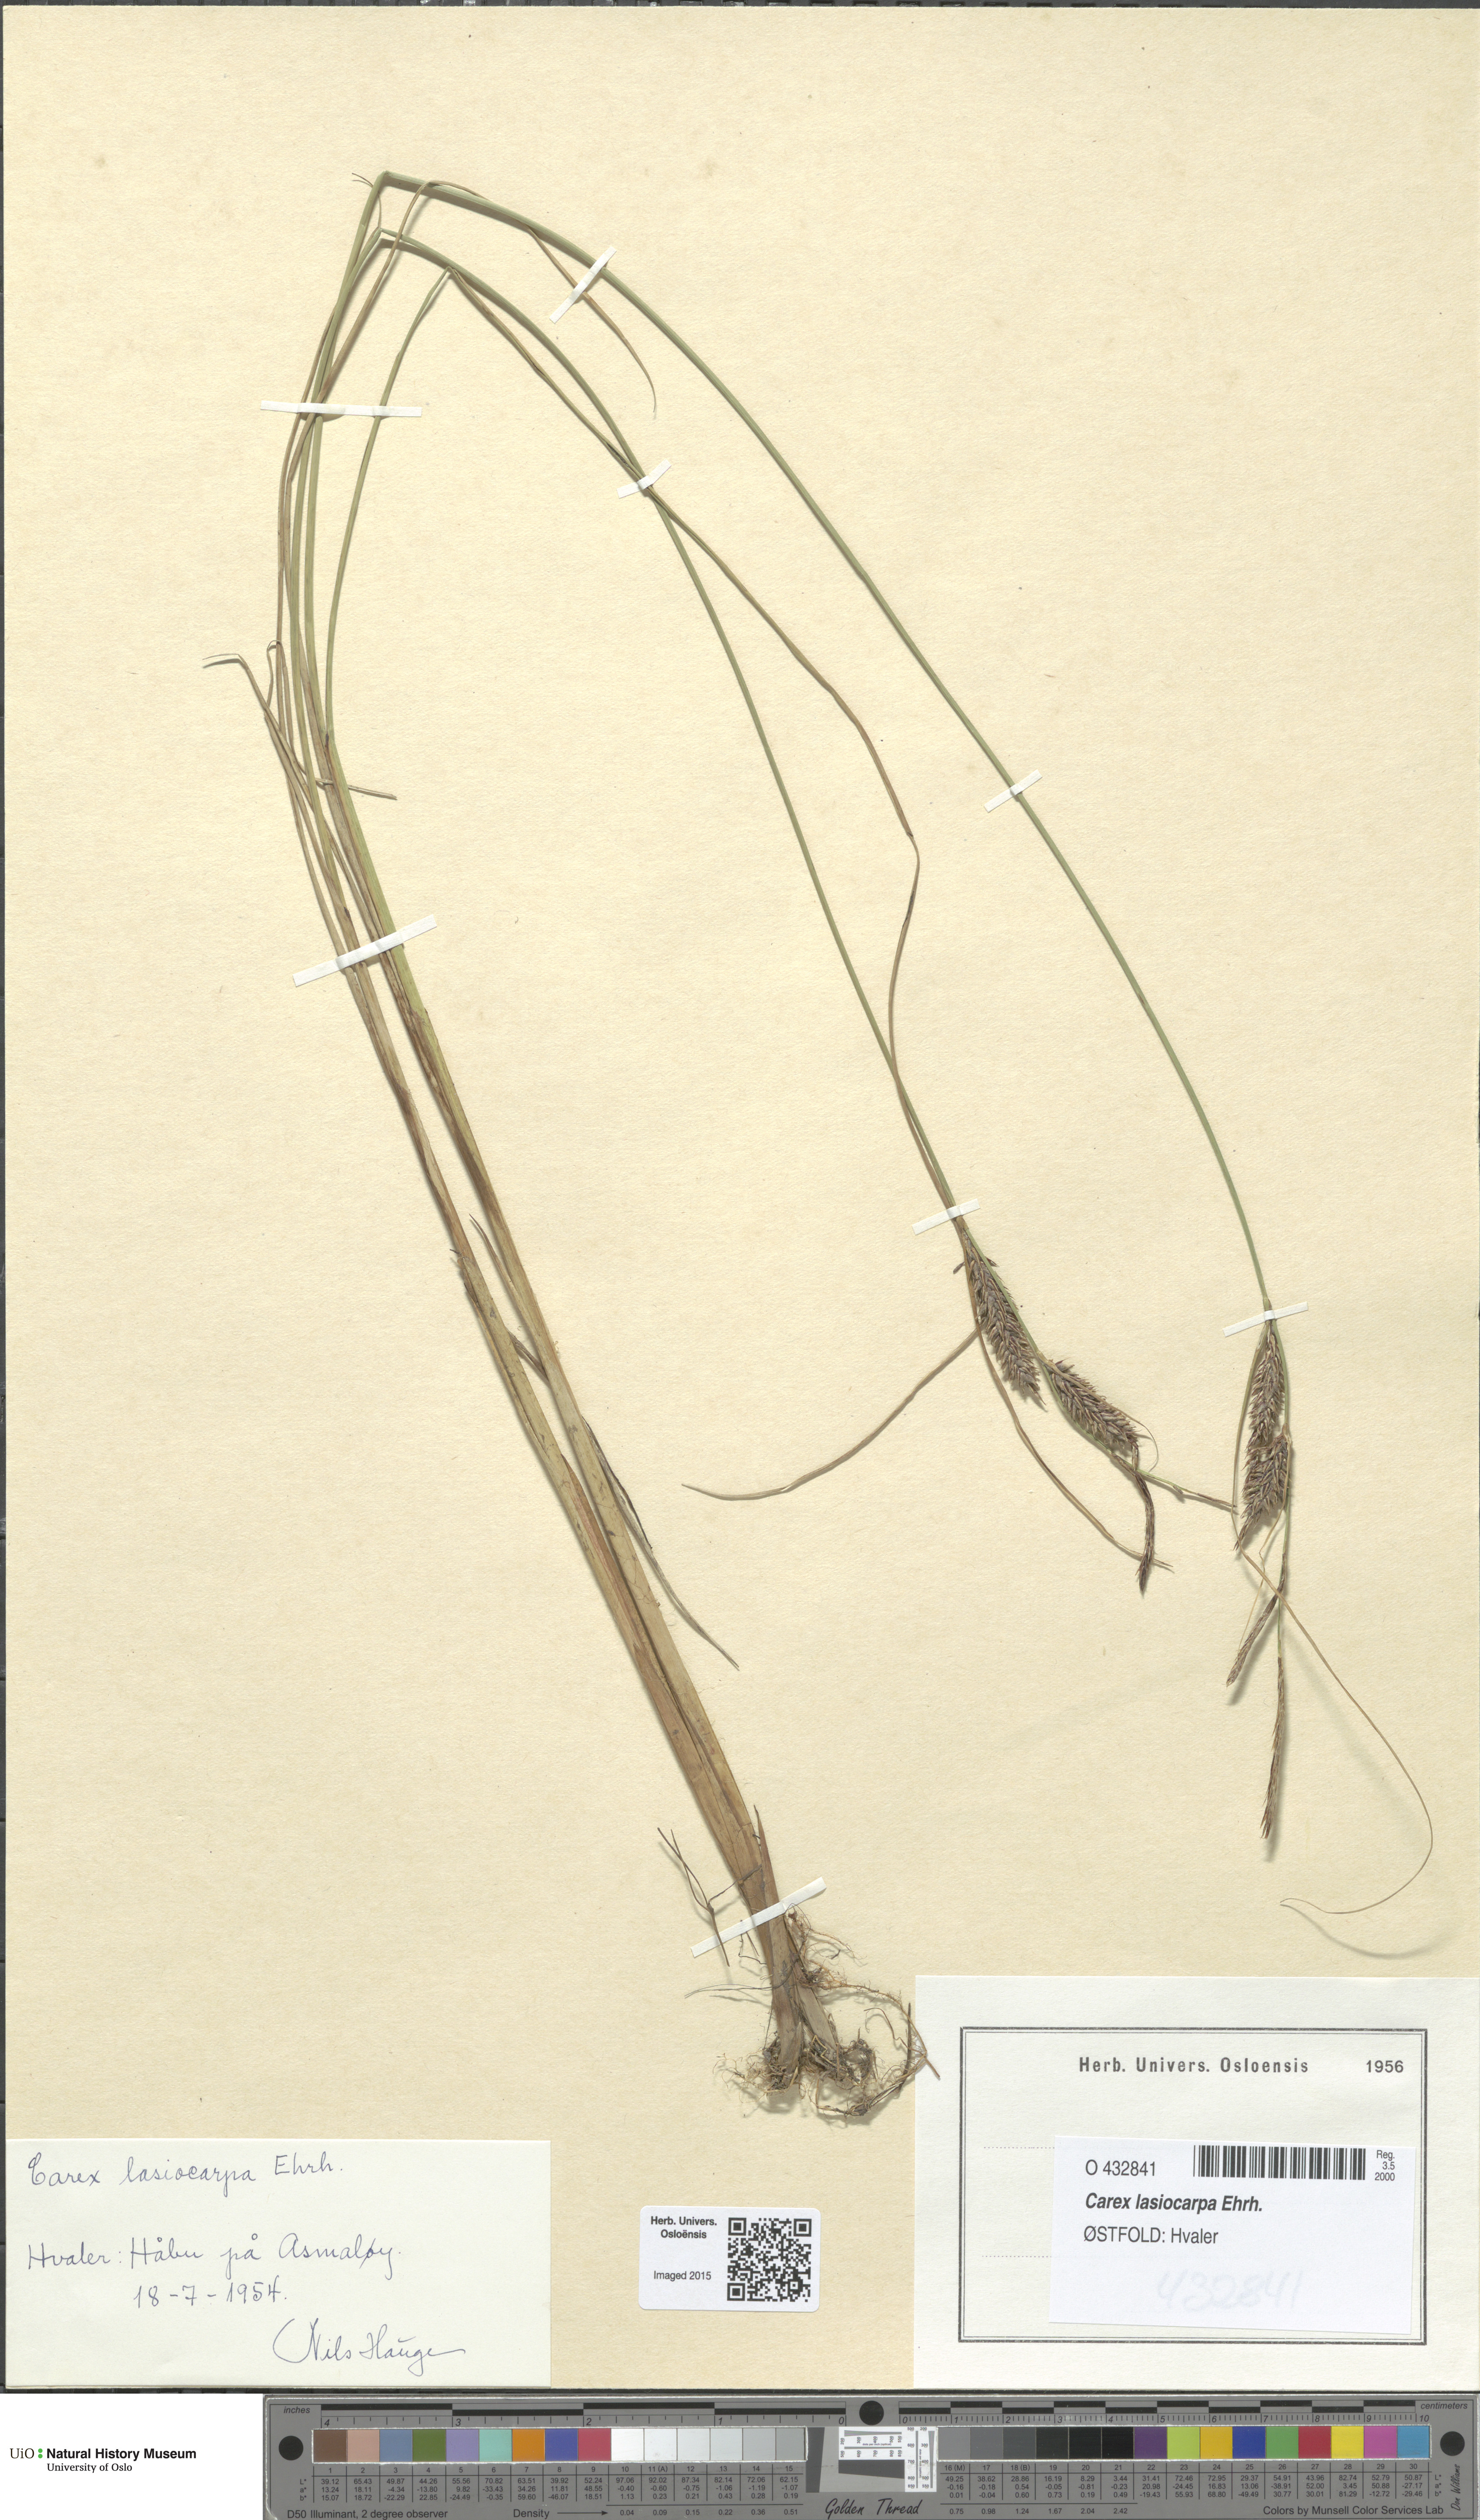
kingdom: Plantae
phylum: Tracheophyta
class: Liliopsida
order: Poales
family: Cyperaceae
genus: Carex
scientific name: Carex lasiocarpa
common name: Slender sedge
